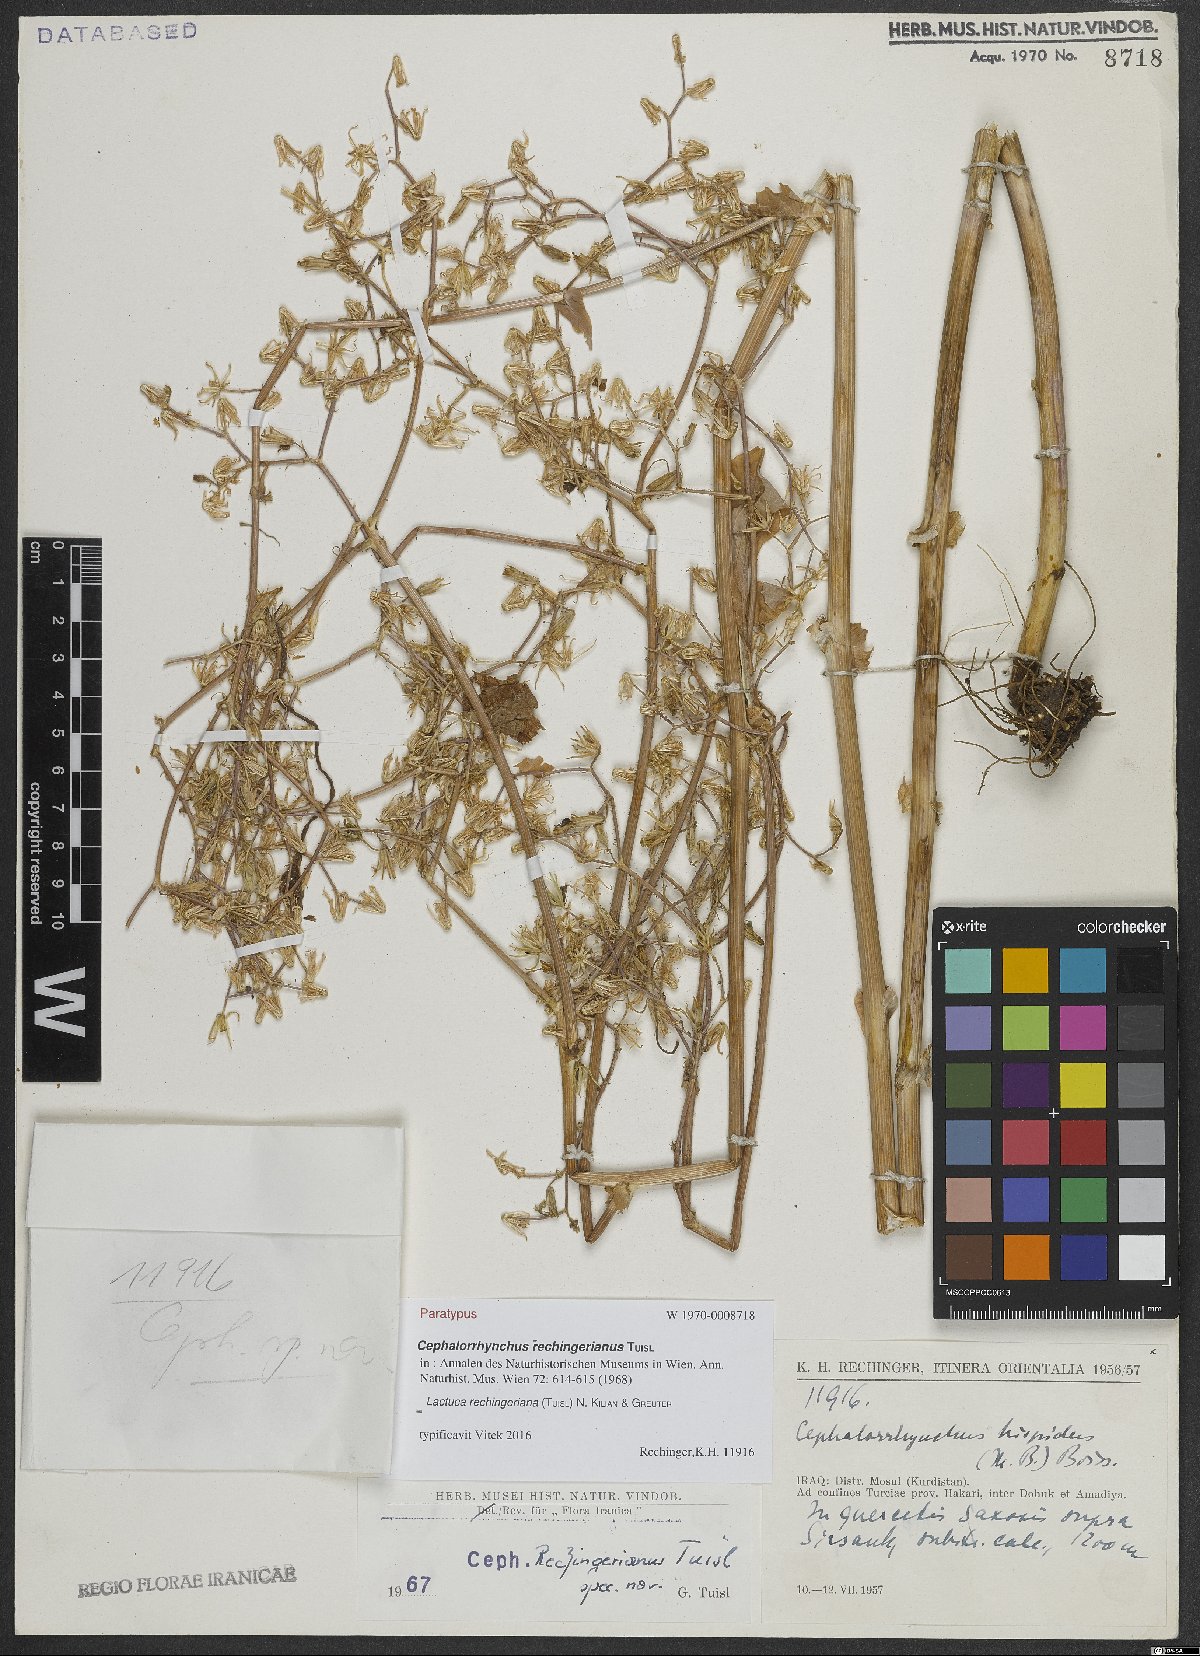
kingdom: Plantae
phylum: Tracheophyta
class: Magnoliopsida
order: Asterales
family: Asteraceae
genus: Cicerbita
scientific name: Cicerbita rechingeriana
